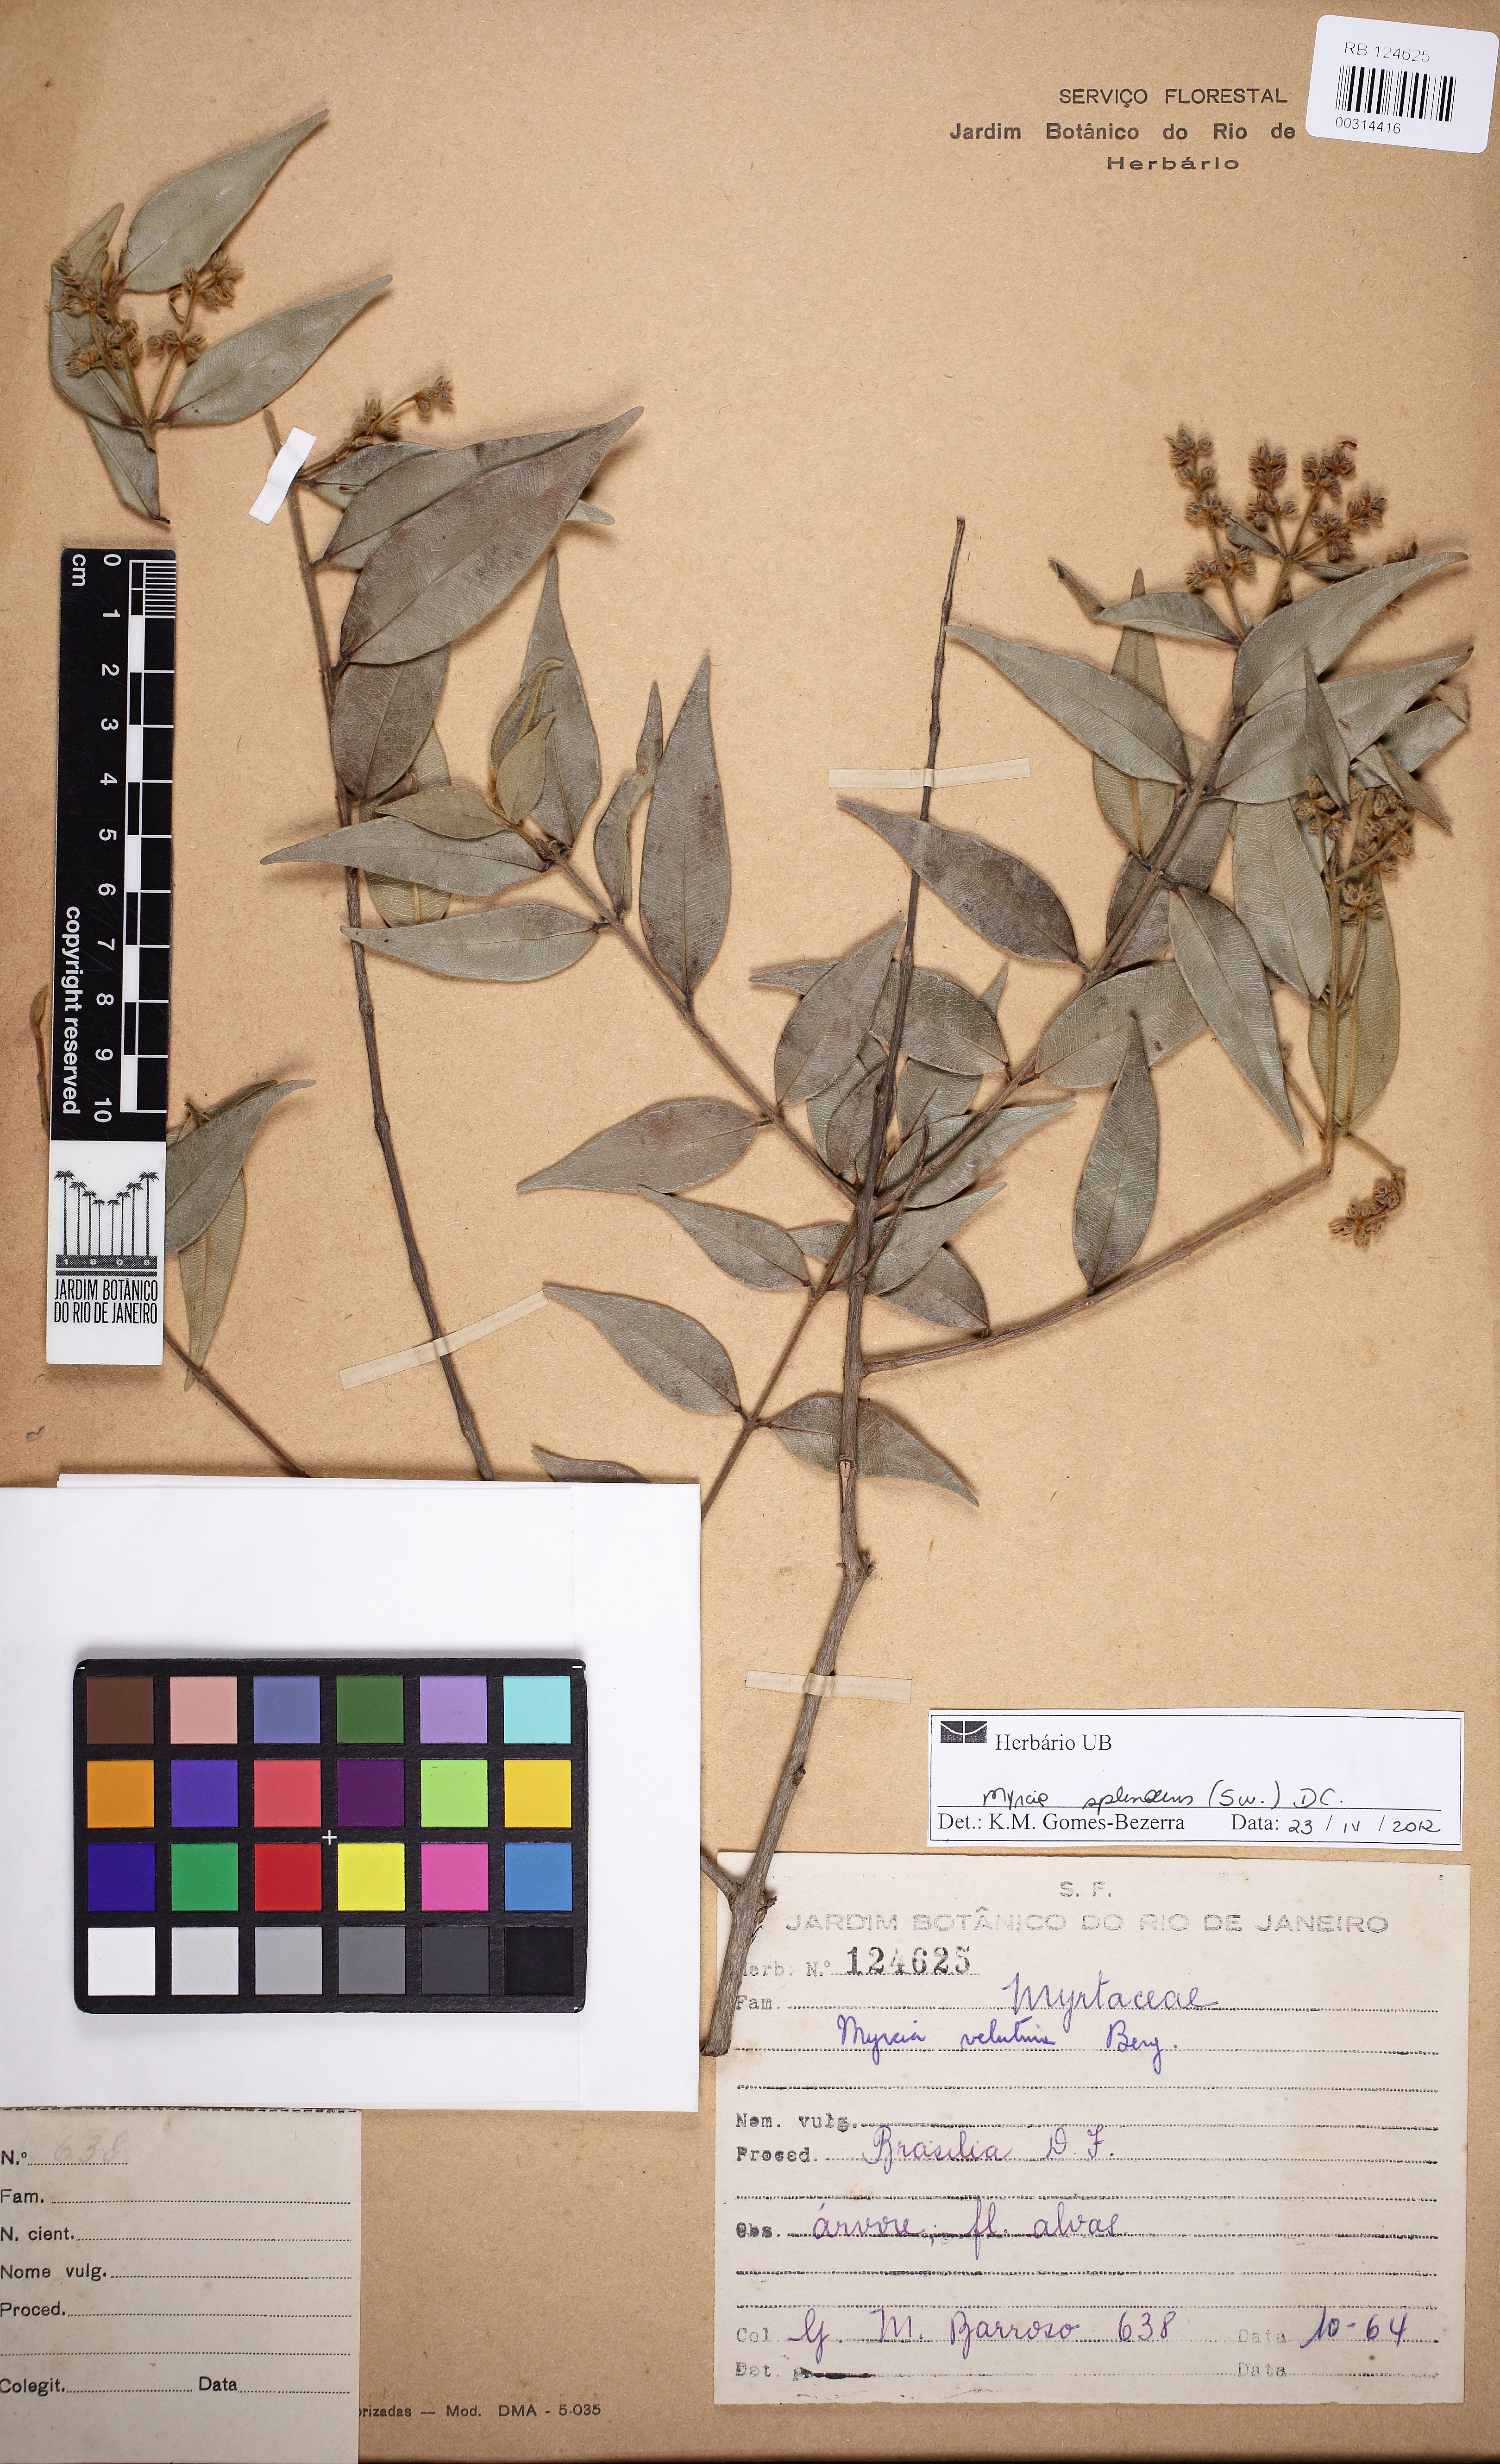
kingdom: Plantae
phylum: Tracheophyta
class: Magnoliopsida
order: Myrtales
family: Myrtaceae
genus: Myrcia
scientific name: Myrcia splendens
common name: Surinam cherry
